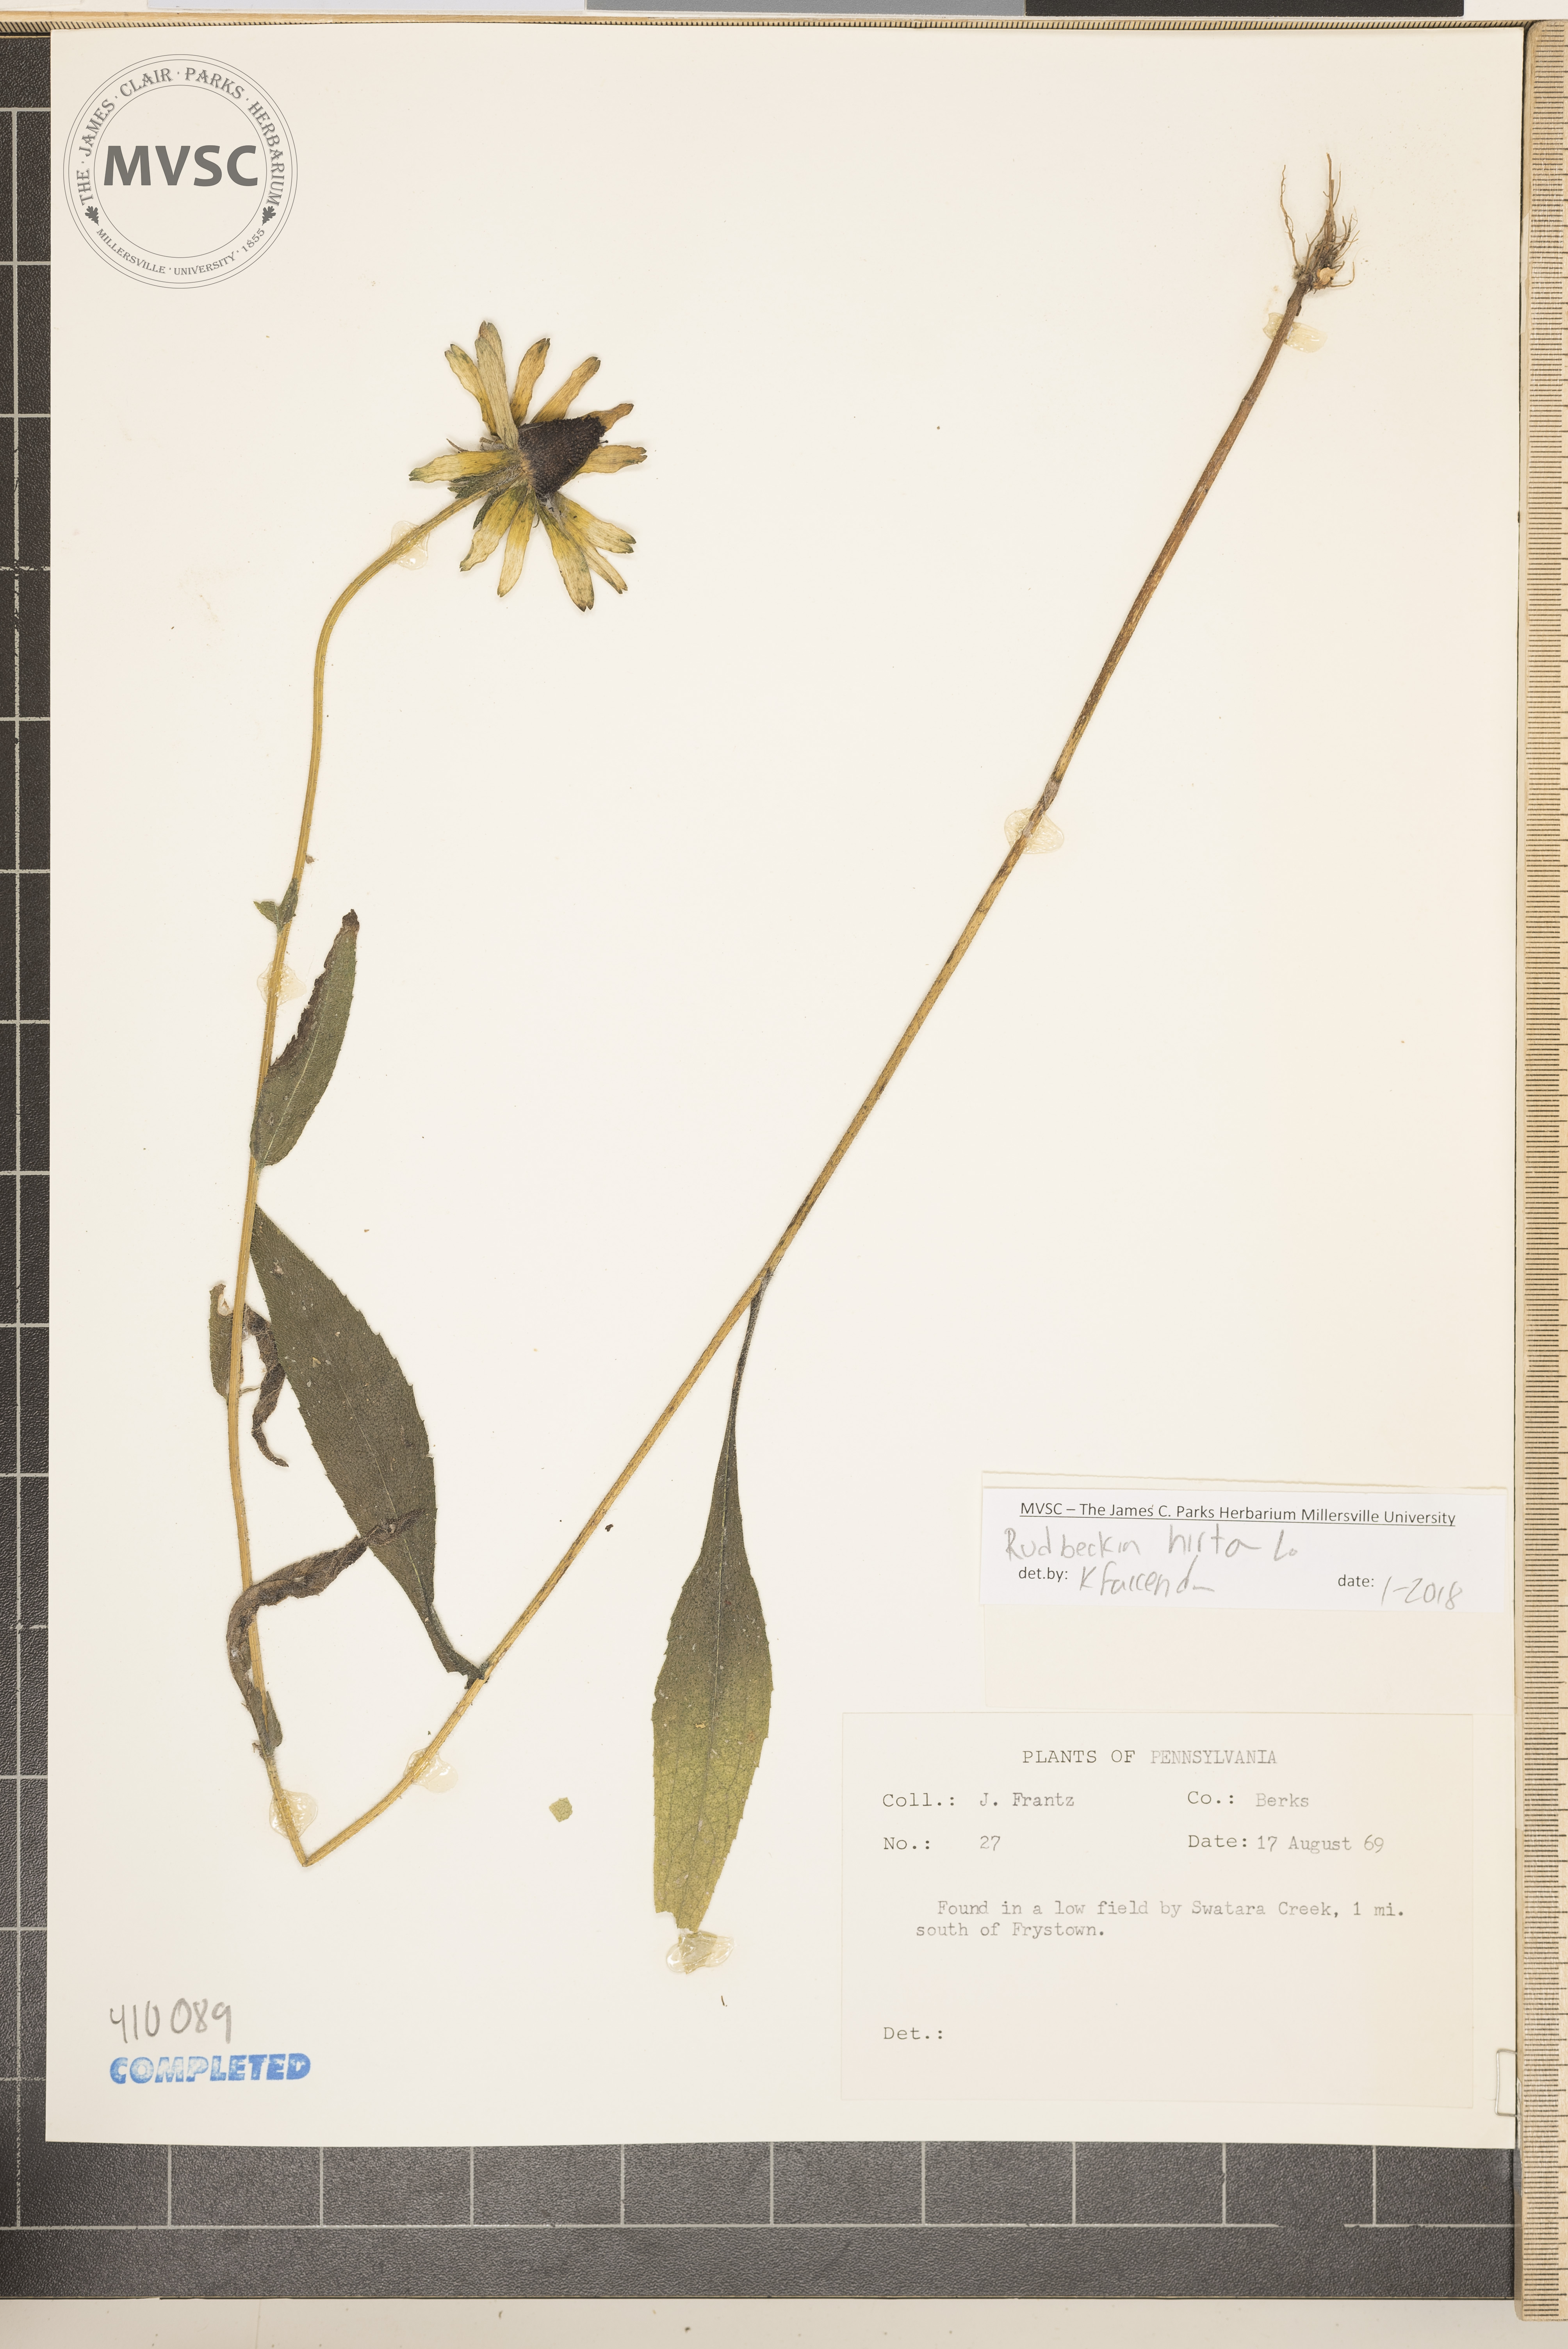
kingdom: Plantae
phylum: Tracheophyta
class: Magnoliopsida
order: Asterales
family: Asteraceae
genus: Rudbeckia
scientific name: Rudbeckia hirta
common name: Black-eyed-susan
